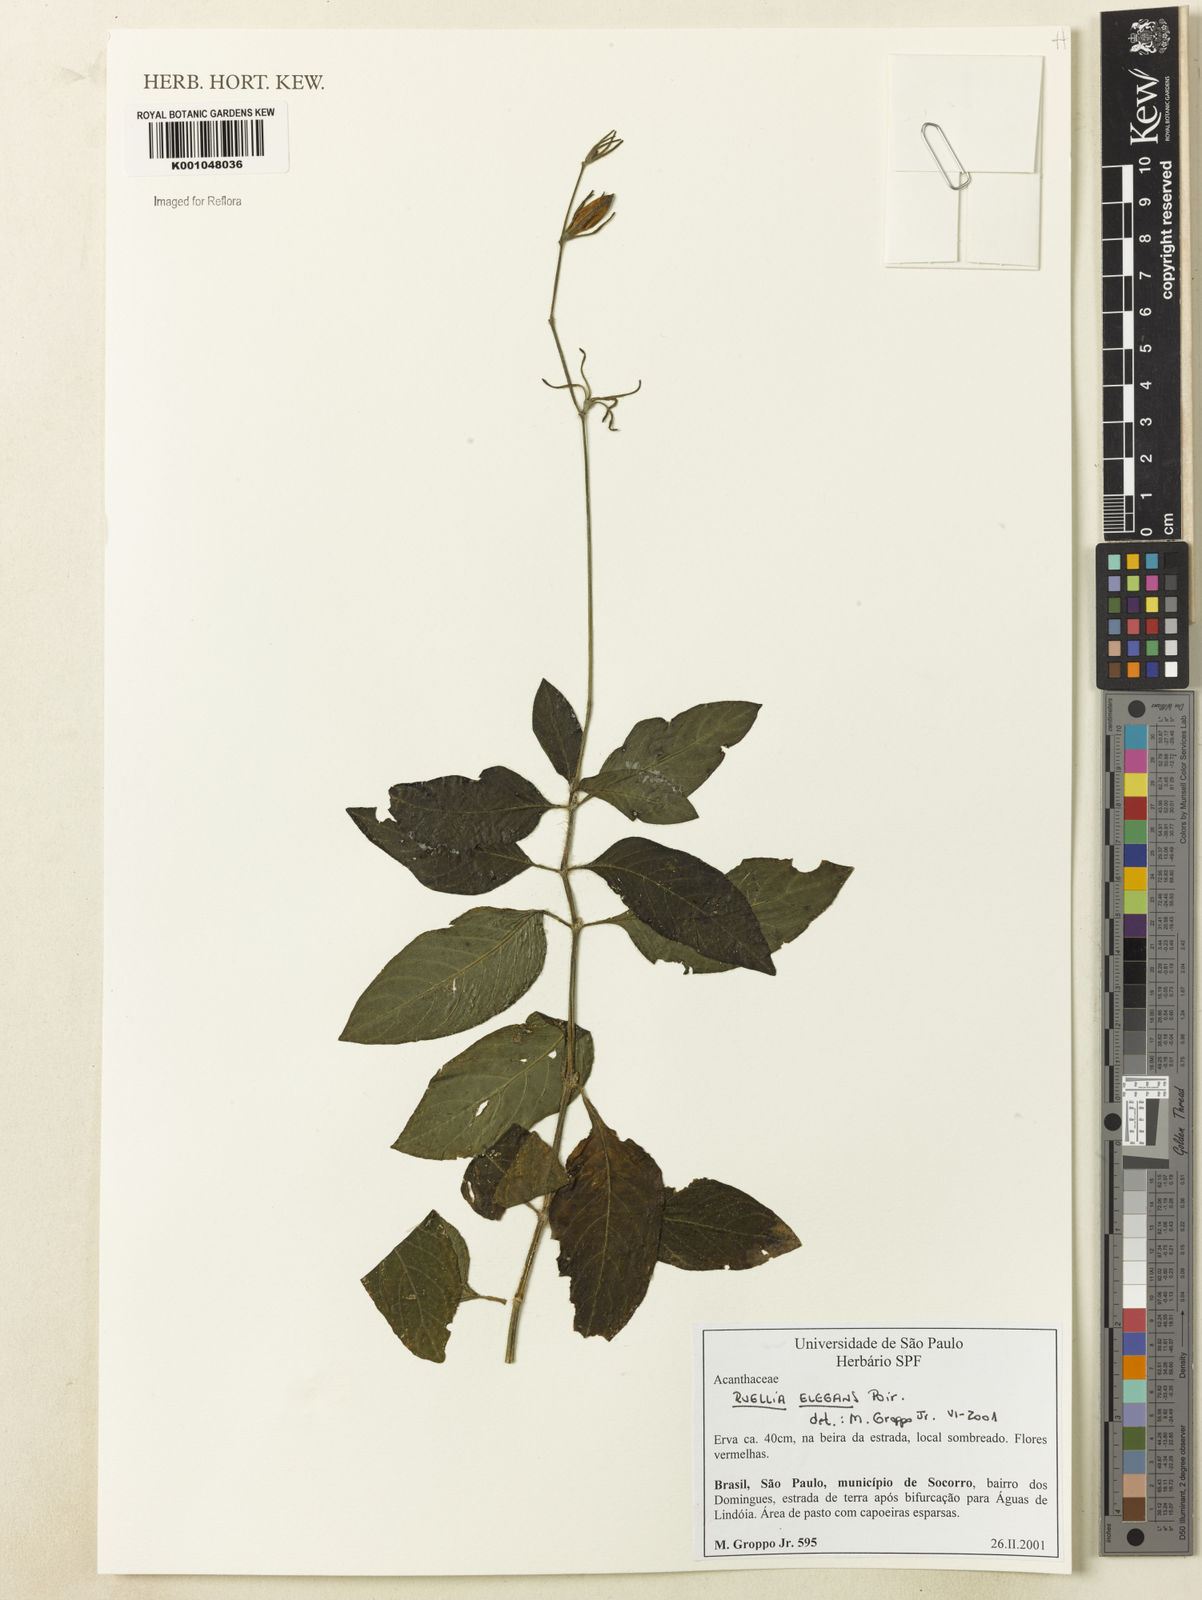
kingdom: Plantae
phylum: Tracheophyta
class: Magnoliopsida
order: Lamiales
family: Acanthaceae
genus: Ruellia
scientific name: Ruellia elegans
